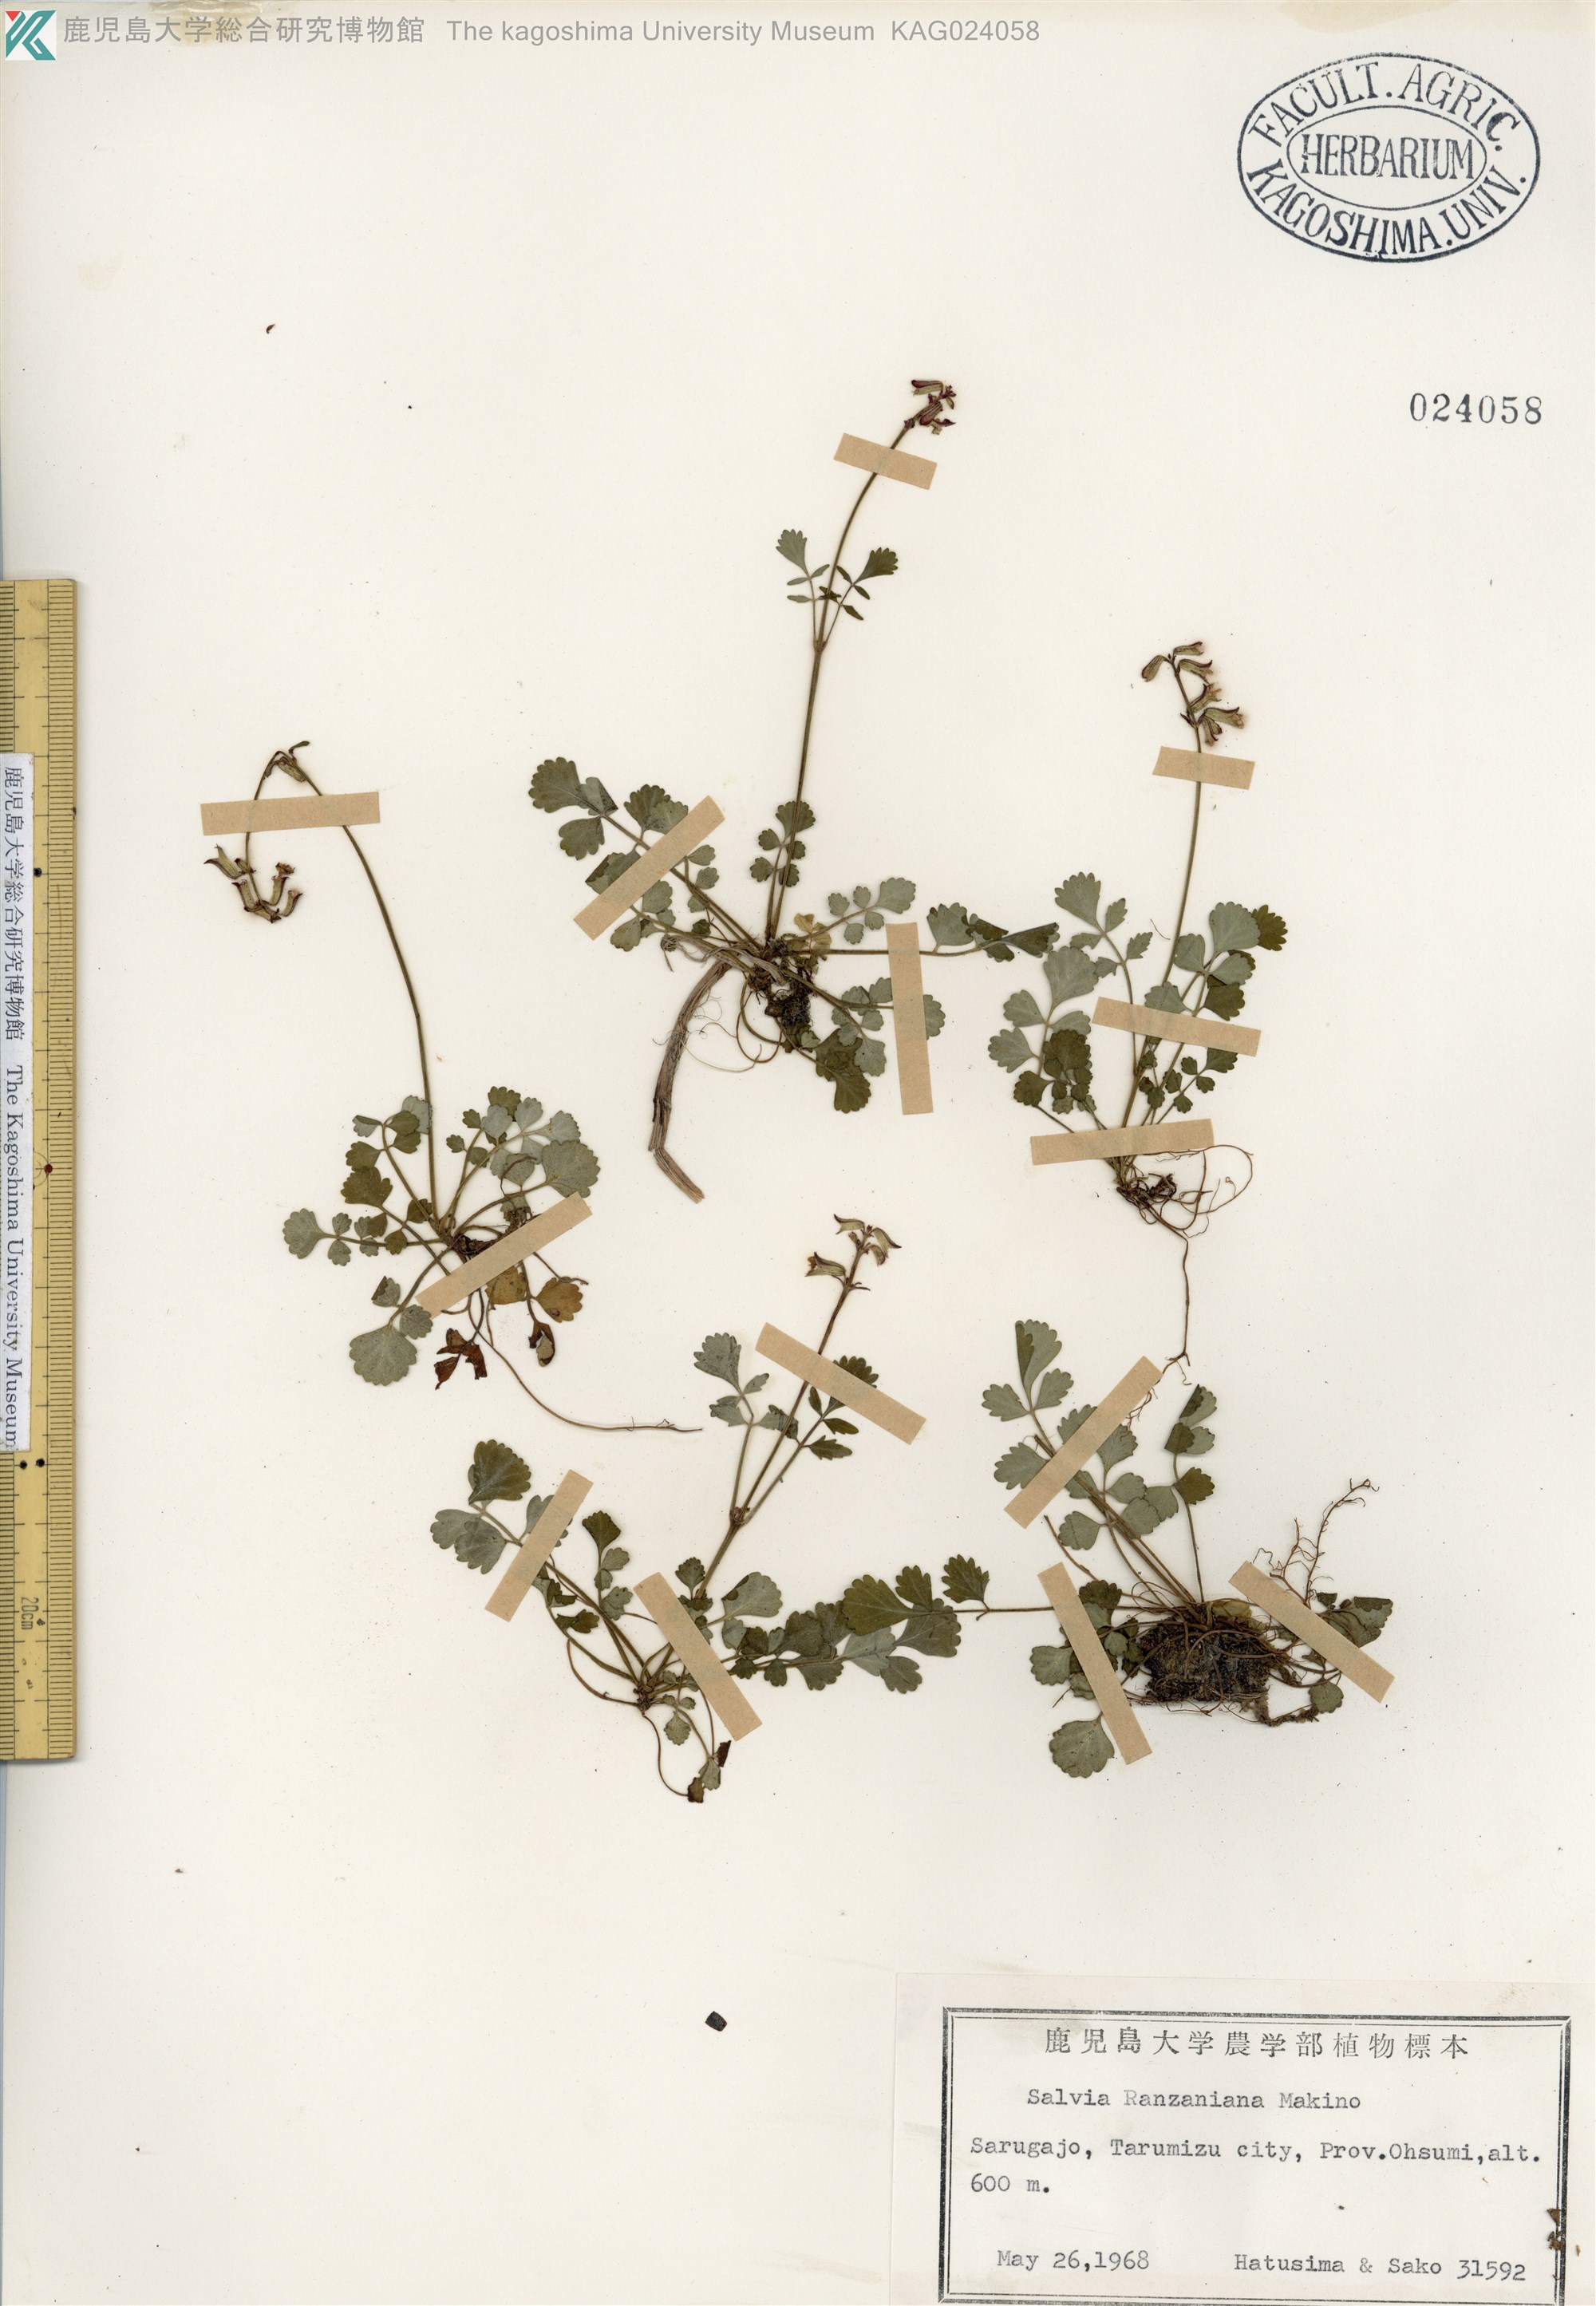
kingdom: Plantae
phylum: Tracheophyta
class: Magnoliopsida
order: Lamiales
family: Lamiaceae
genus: Salvia
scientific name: Salvia ranzaniana
